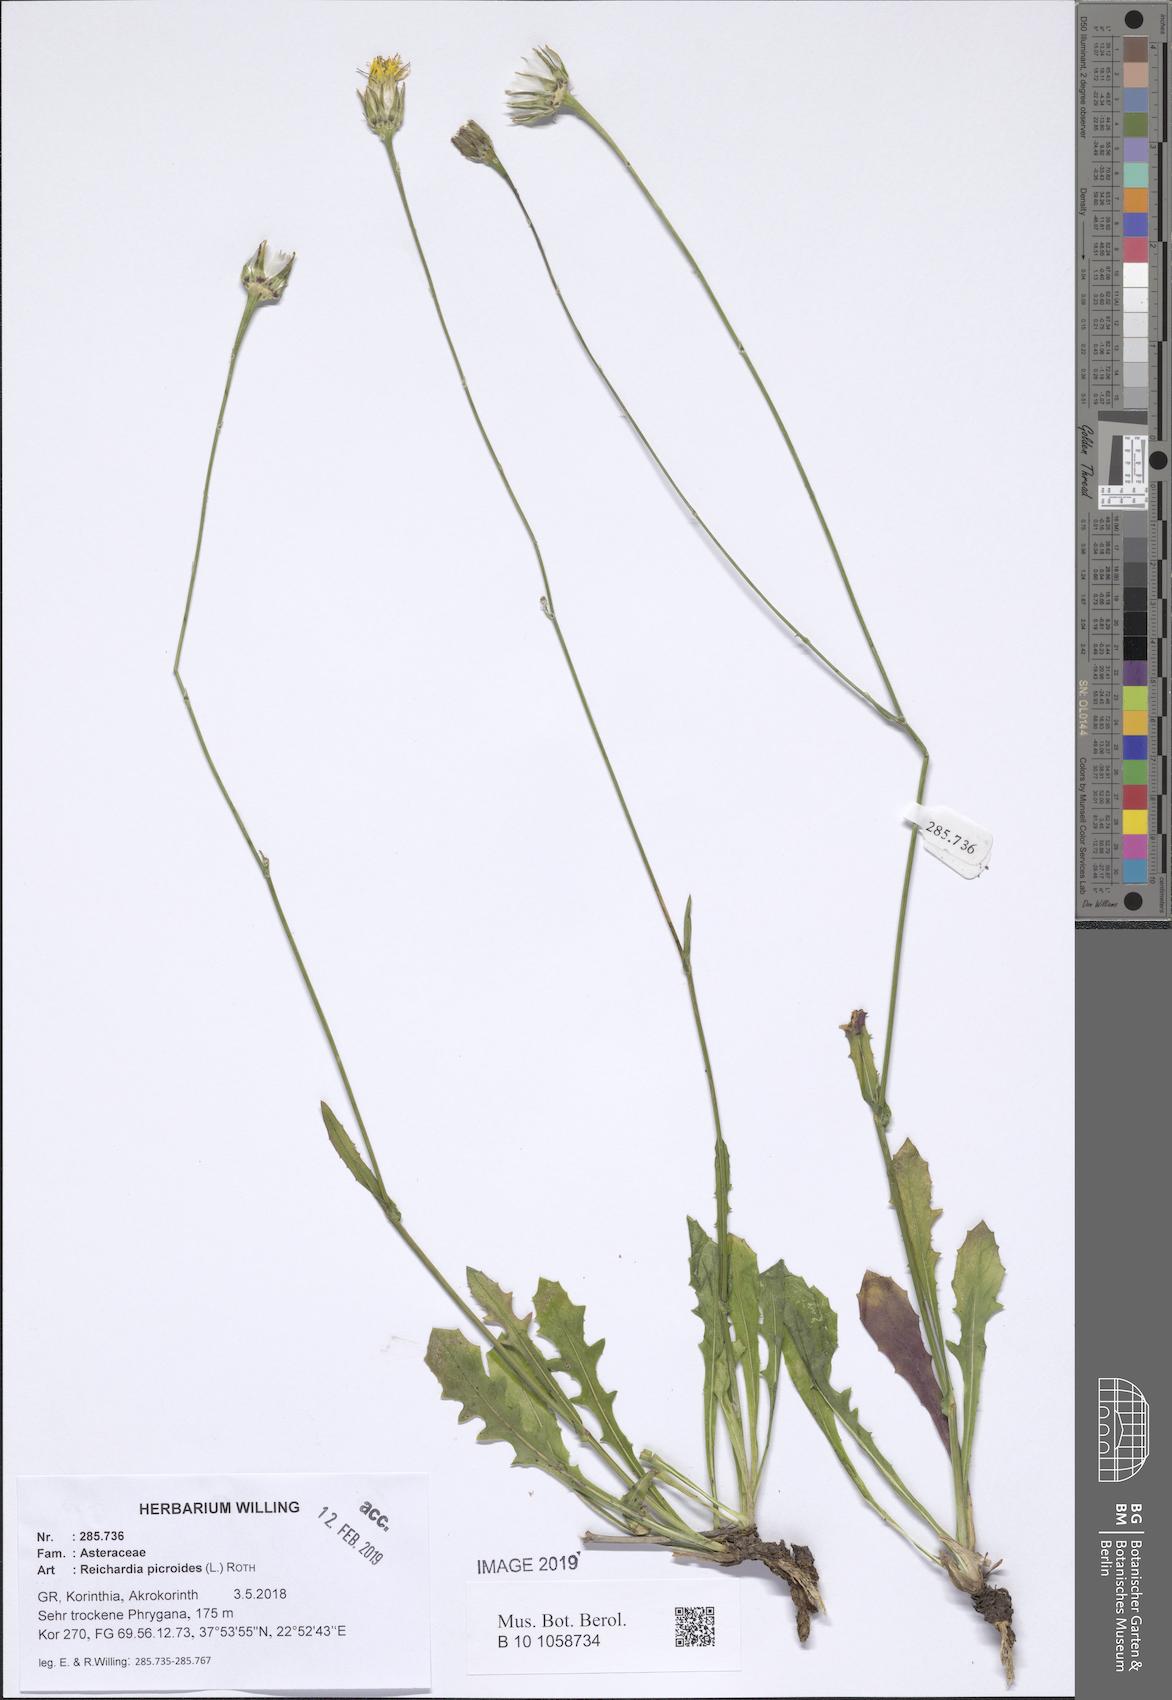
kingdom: Plantae
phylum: Tracheophyta
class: Magnoliopsida
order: Asterales
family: Asteraceae
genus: Reichardia
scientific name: Reichardia picroides
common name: Common brighteyes
